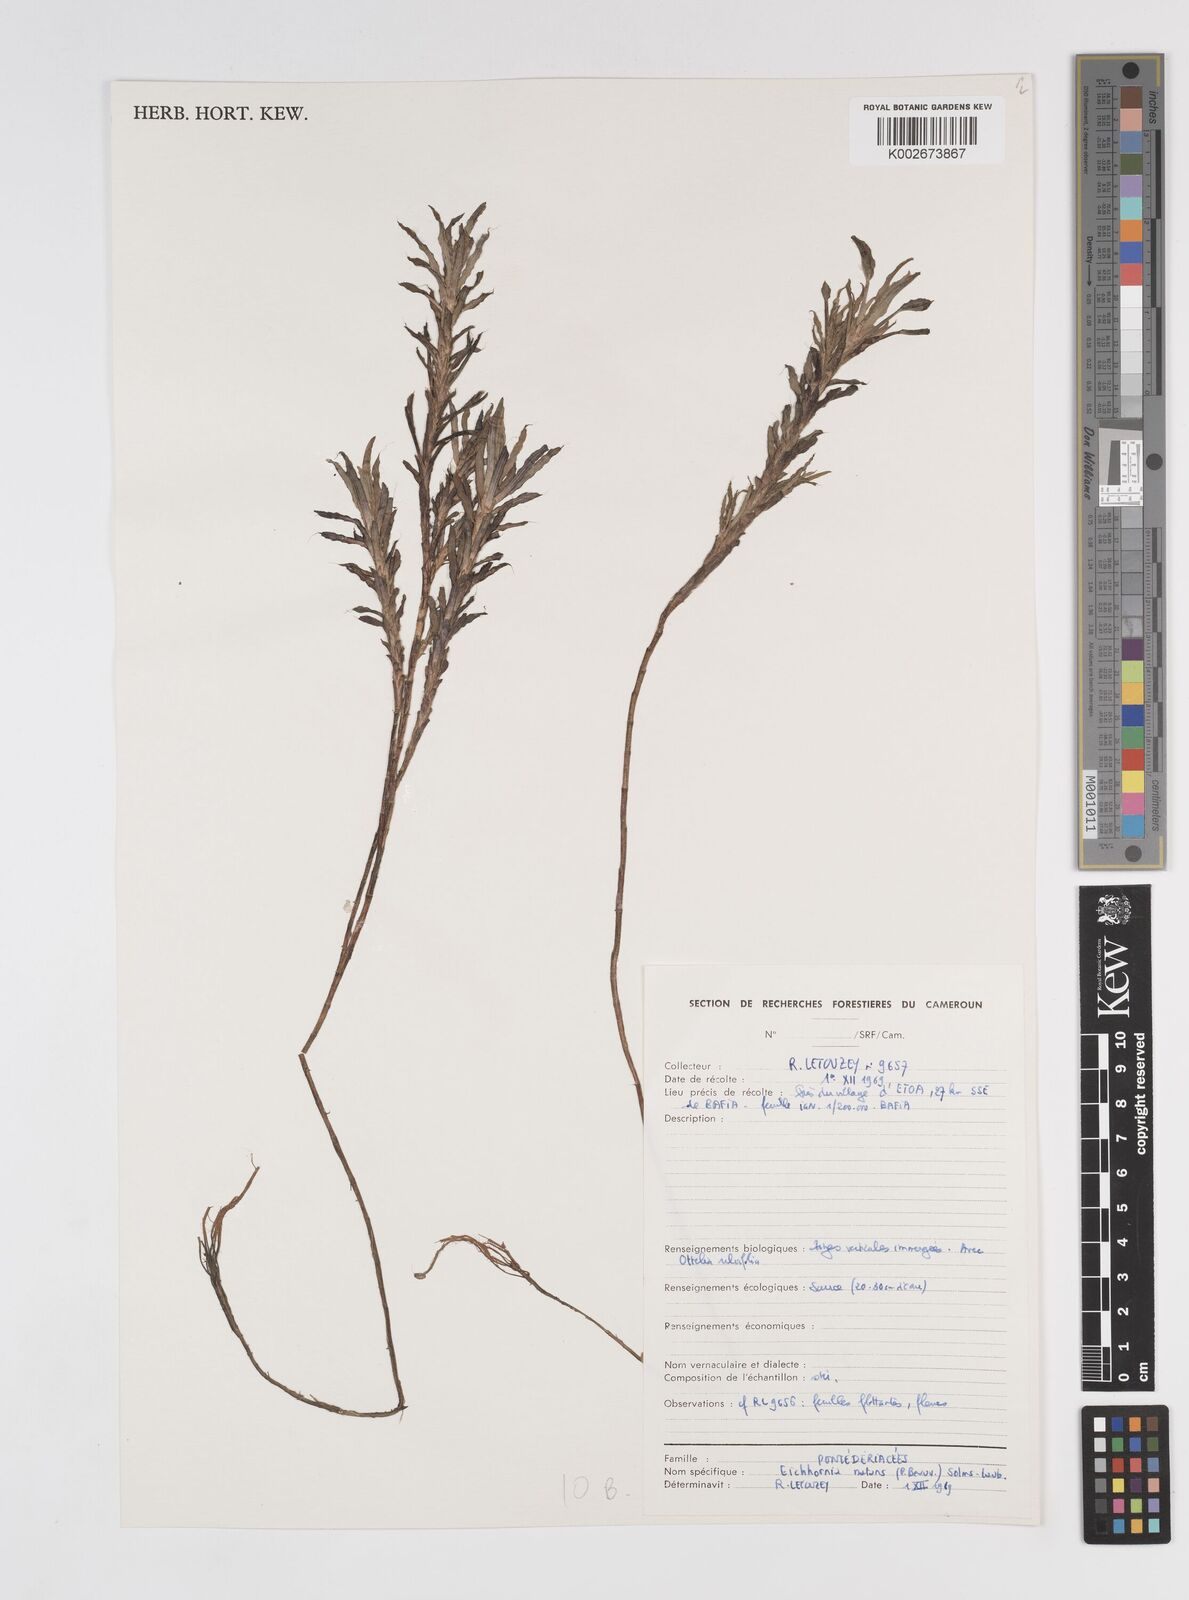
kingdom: Plantae
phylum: Tracheophyta
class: Liliopsida
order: Commelinales
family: Pontederiaceae
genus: Pontederia
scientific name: Pontederia natans
